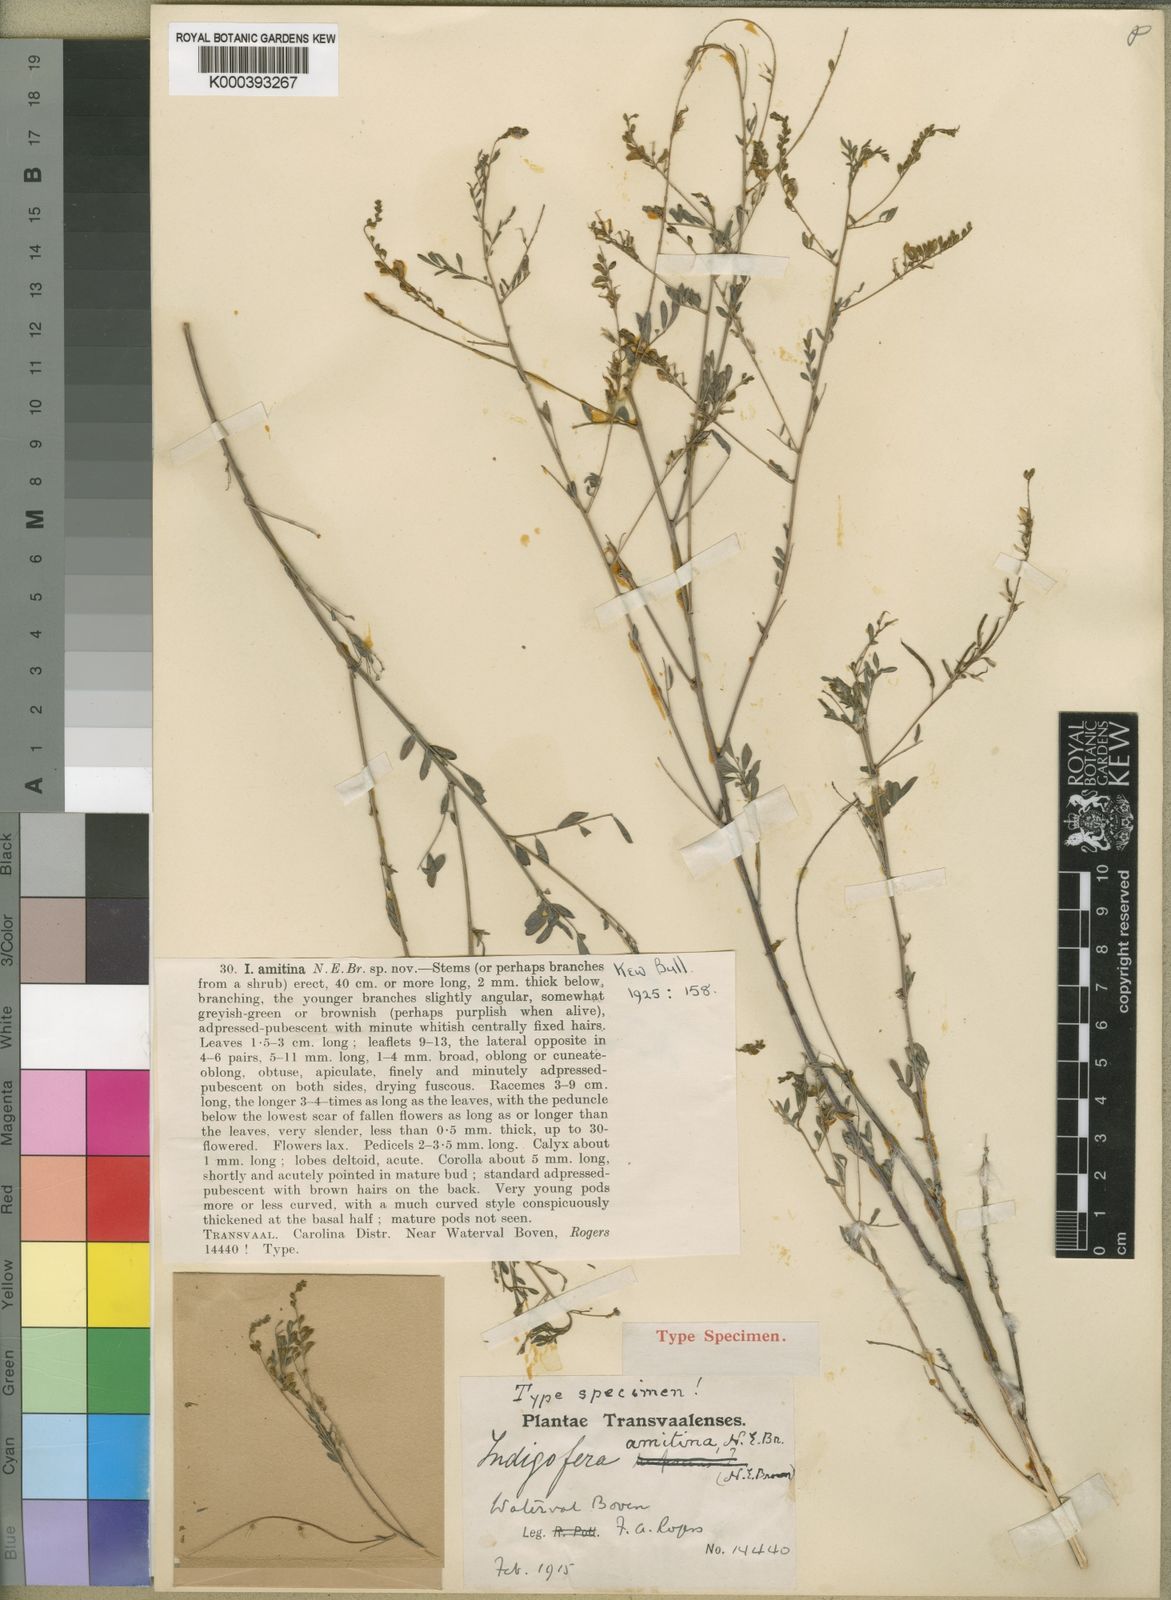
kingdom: Plantae
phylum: Tracheophyta
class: Magnoliopsida
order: Fabales
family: Fabaceae
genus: Indigofera
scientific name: Indigofera amitina
